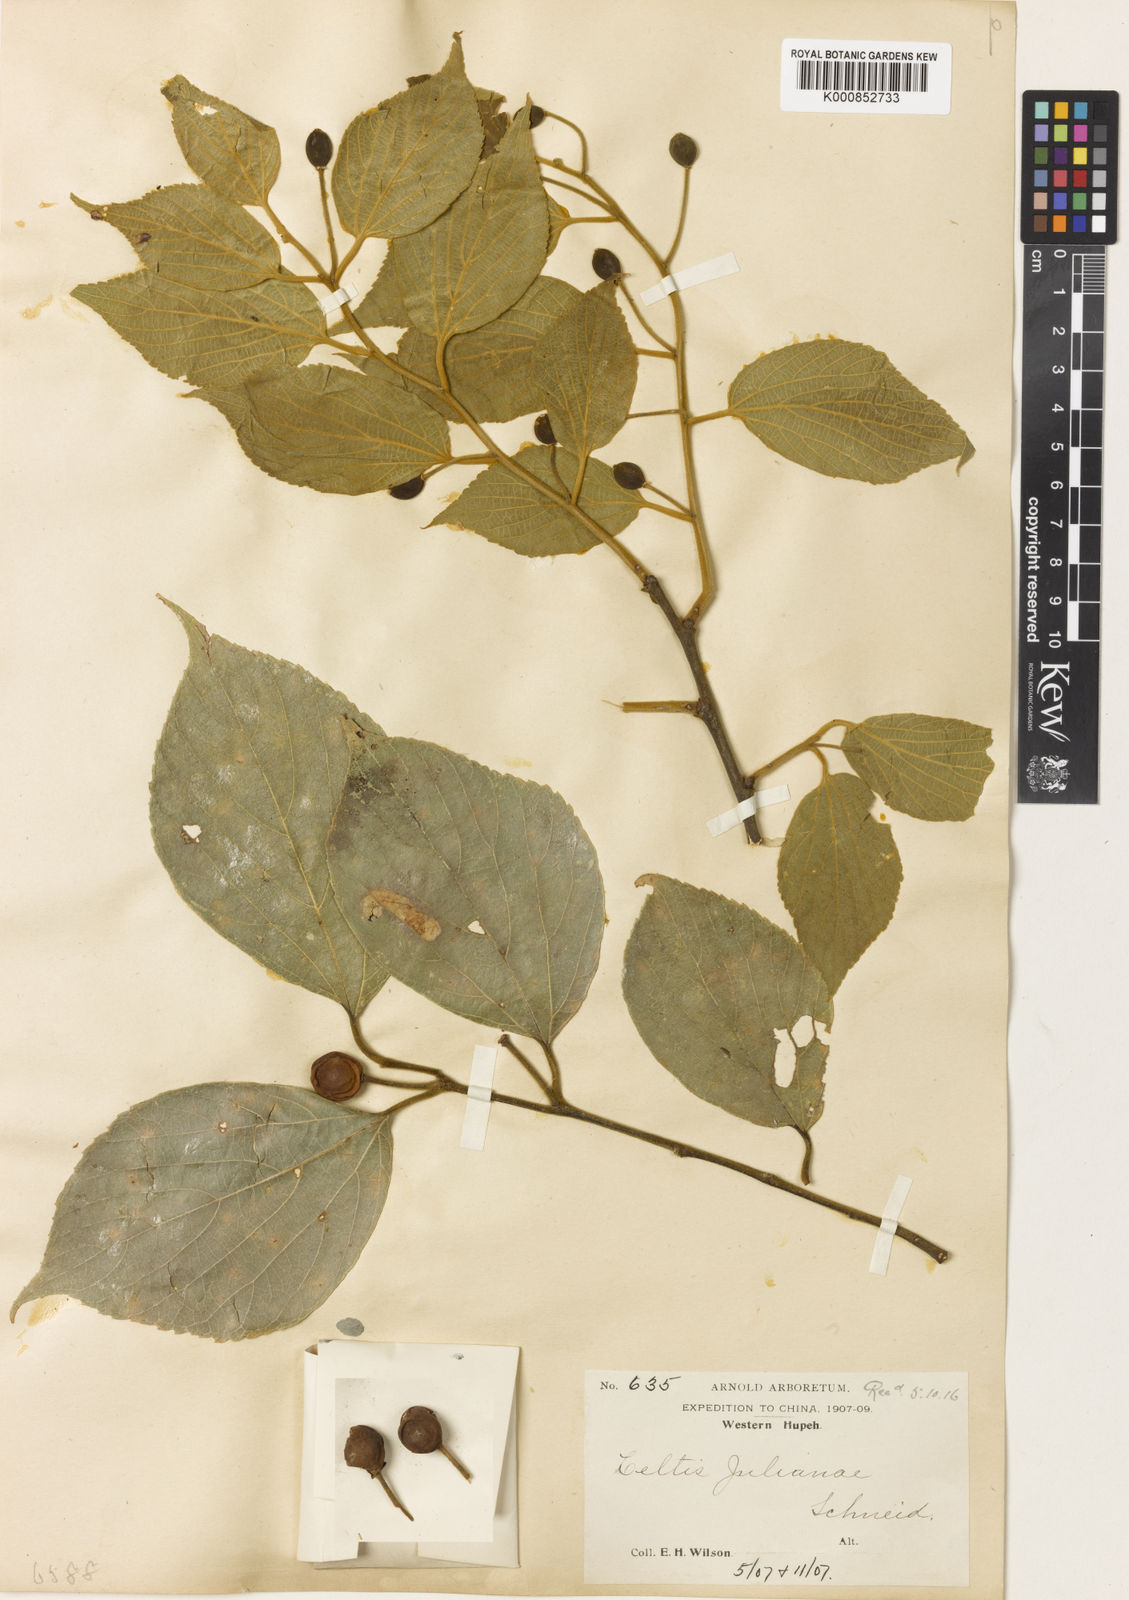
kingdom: Plantae
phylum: Tracheophyta
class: Magnoliopsida
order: Rosales
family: Cannabaceae
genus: Celtis
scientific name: Celtis julianae
